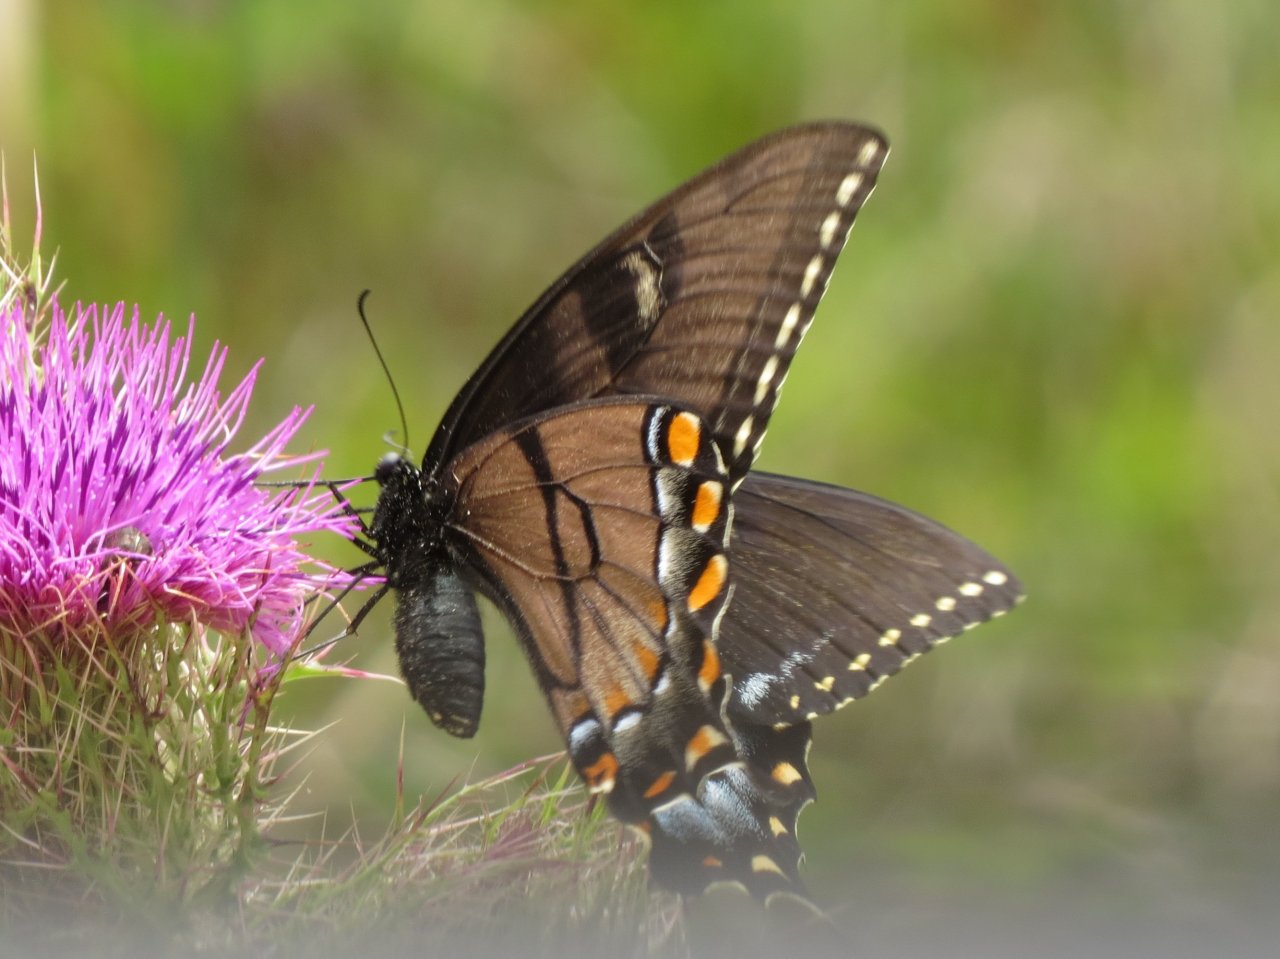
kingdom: Animalia
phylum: Arthropoda
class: Insecta
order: Lepidoptera
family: Papilionidae
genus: Pterourus
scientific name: Pterourus glaucus
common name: Eastern Tiger Swallowtail
